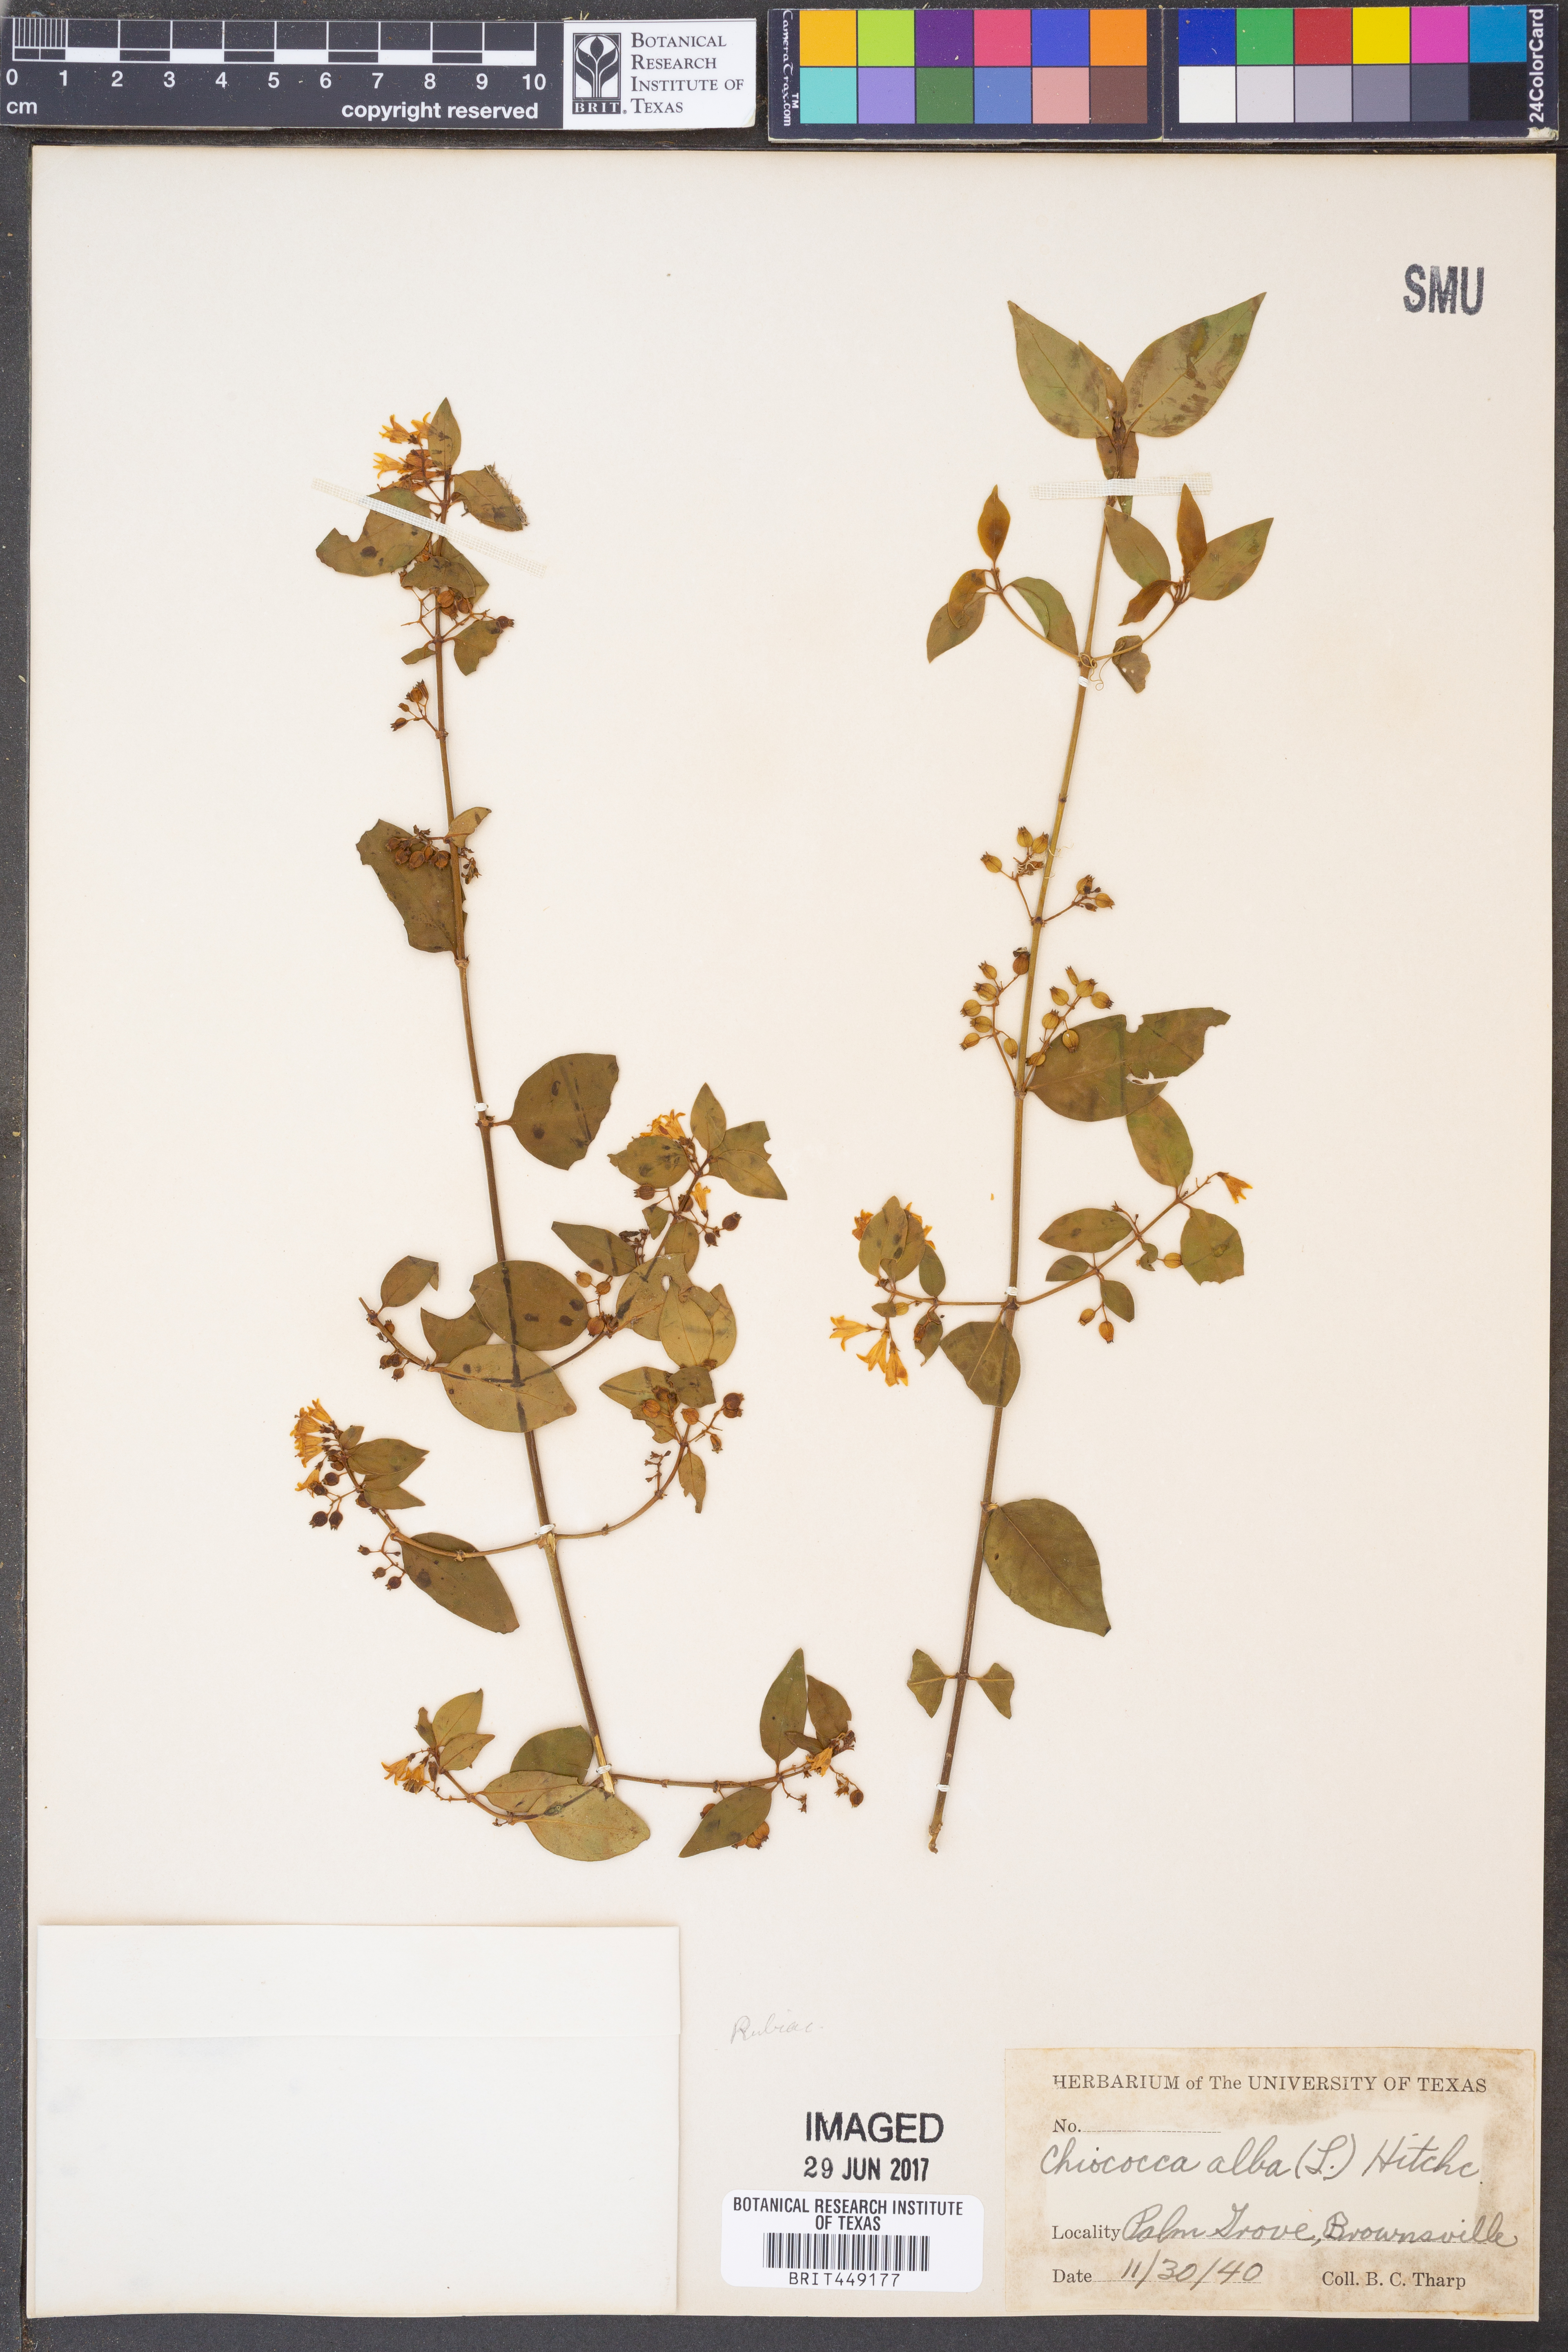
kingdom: Plantae
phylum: Tracheophyta
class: Magnoliopsida
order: Gentianales
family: Rubiaceae
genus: Chiococca
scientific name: Chiococca alba
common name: Snowberry
